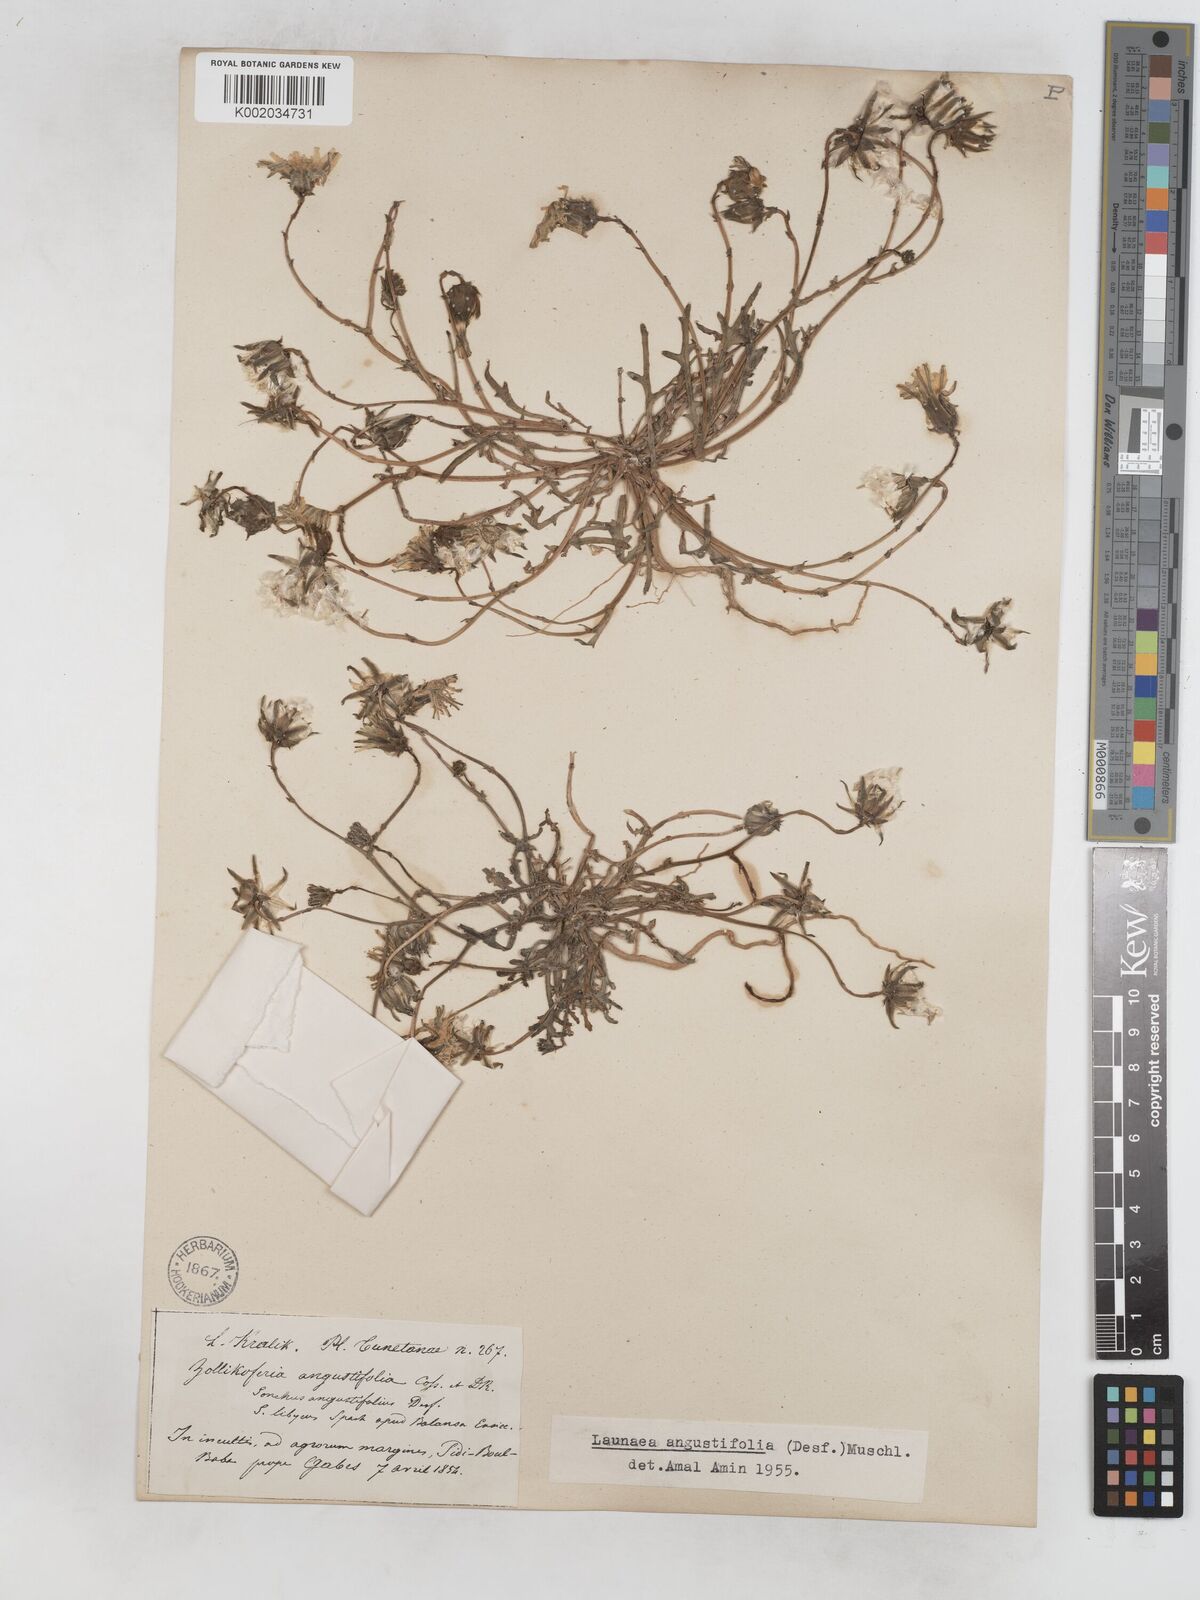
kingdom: Plantae
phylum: Tracheophyta
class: Magnoliopsida
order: Asterales
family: Asteraceae
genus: Launaea
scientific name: Launaea angustifolia
